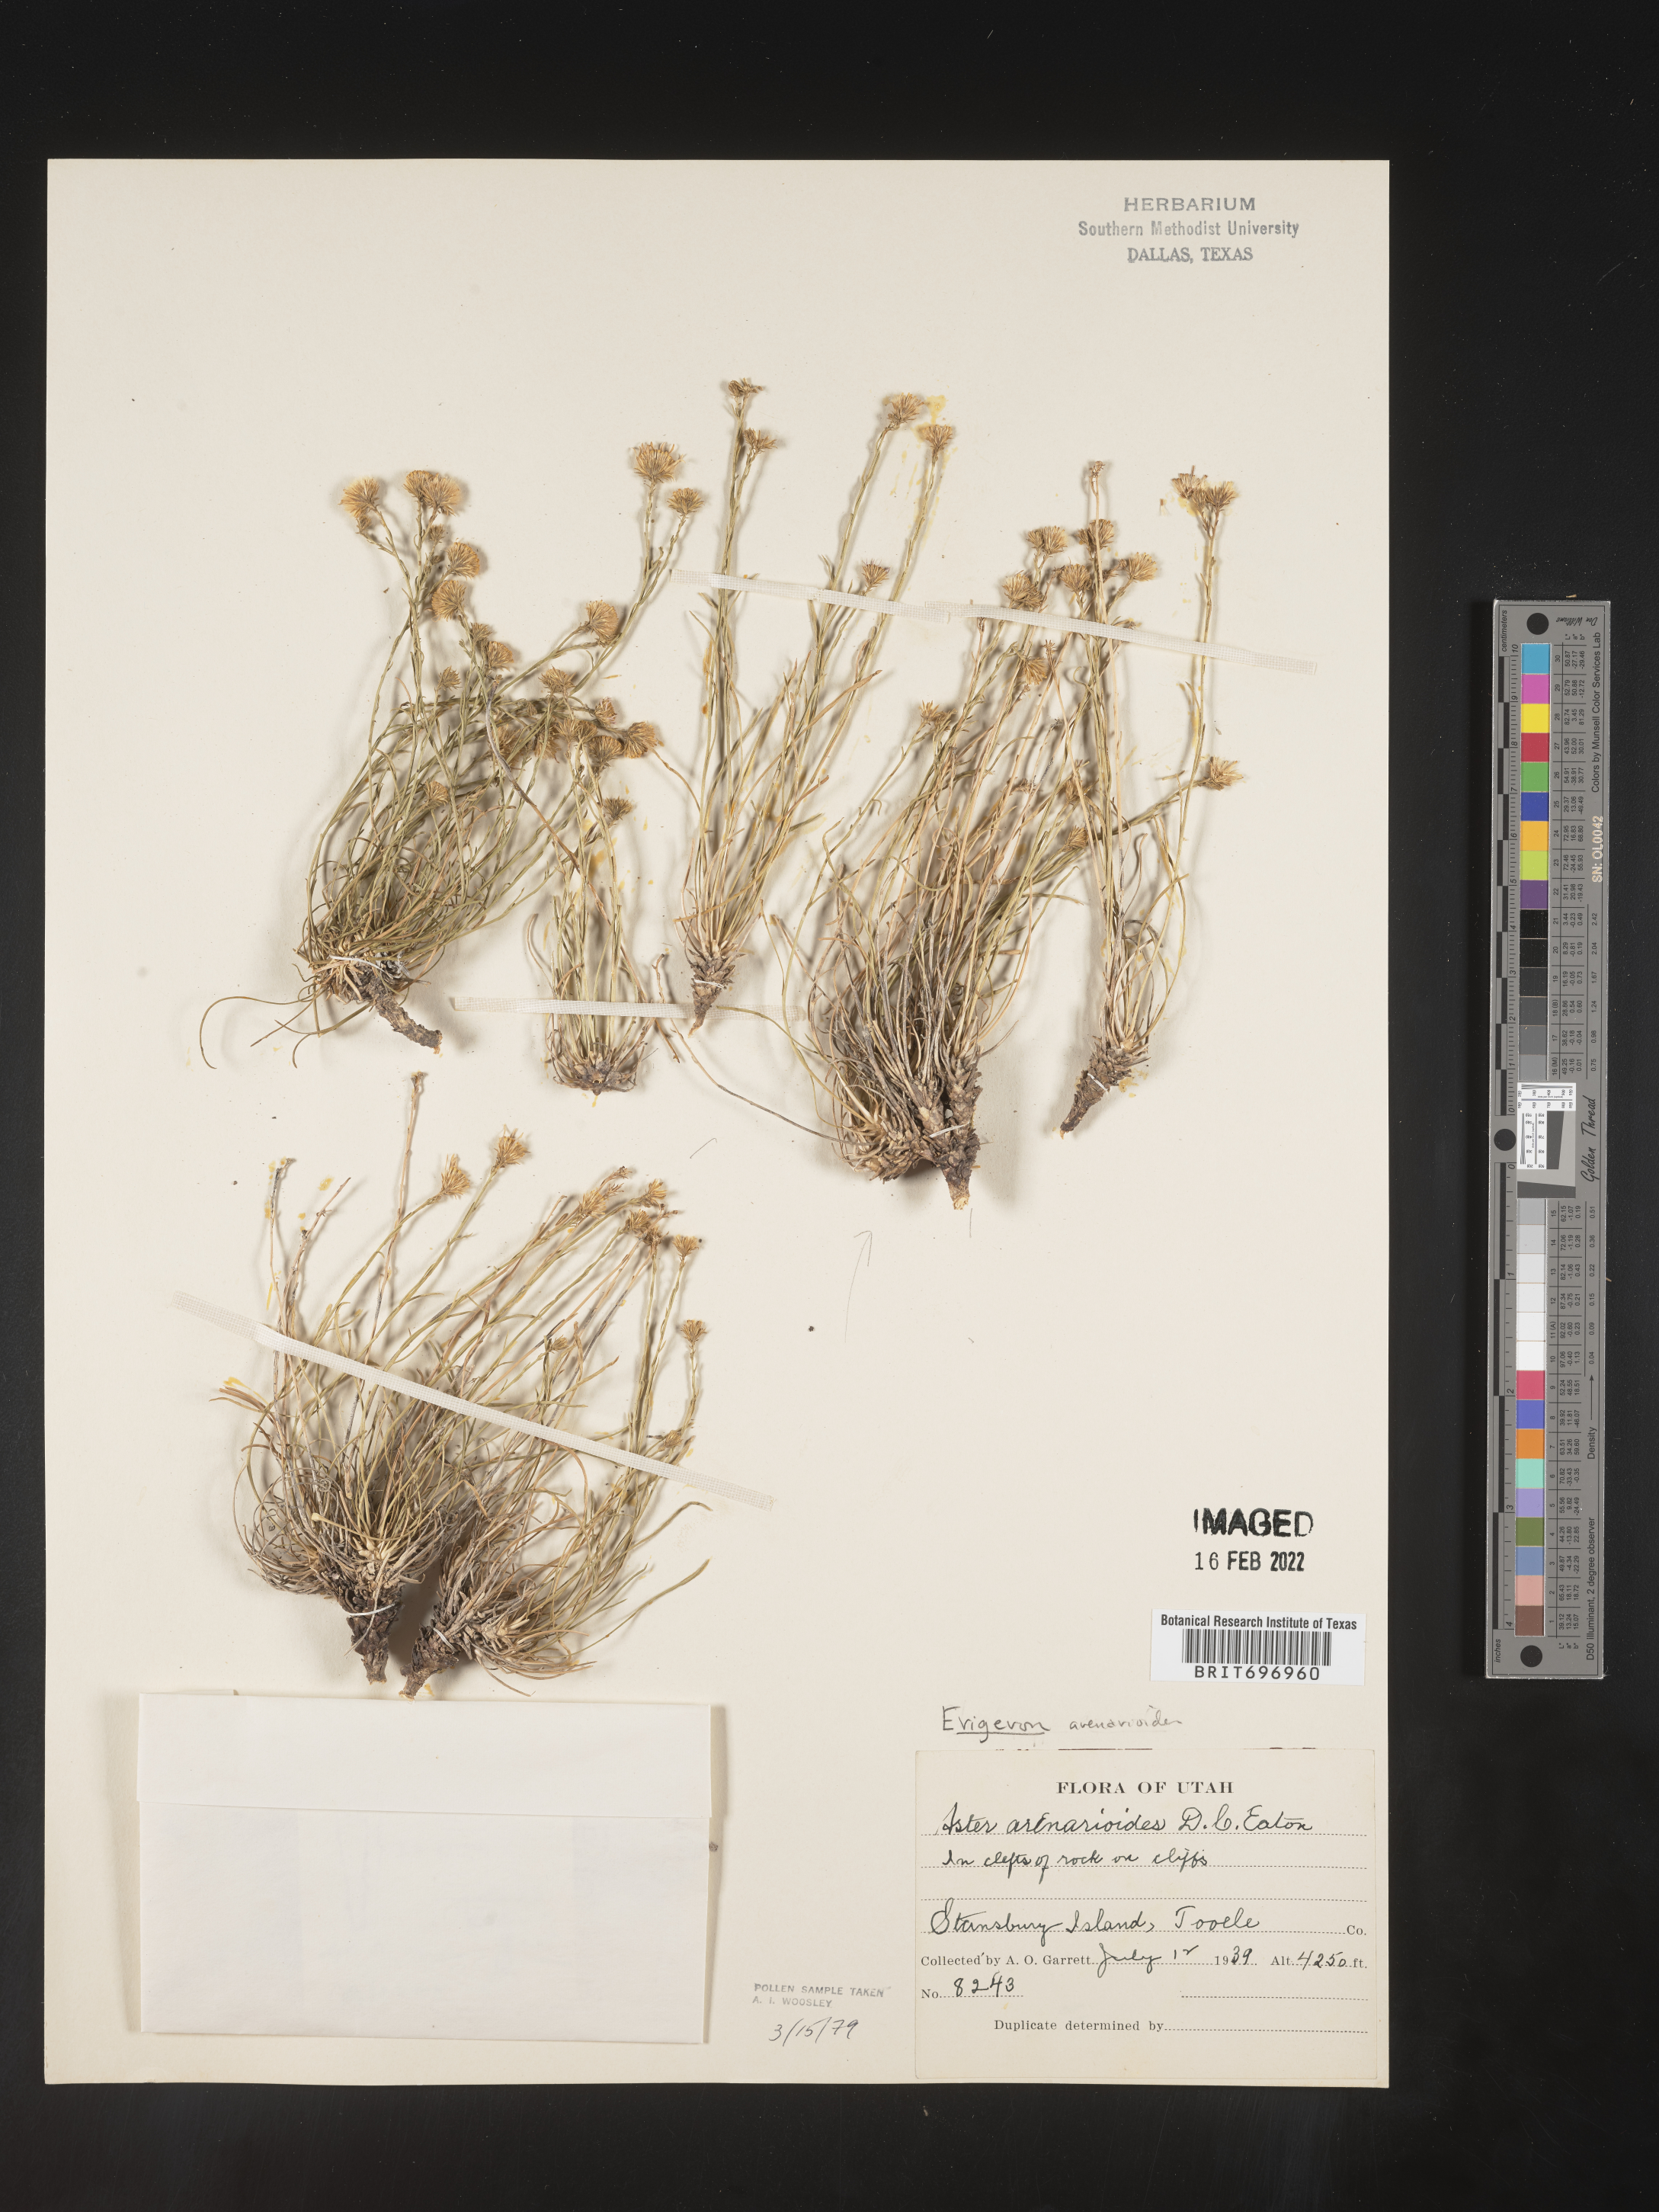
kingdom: Plantae
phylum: Tracheophyta
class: Magnoliopsida
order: Asterales
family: Asteraceae
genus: Erigeron
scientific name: Erigeron arenarioides
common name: Wasatch fleabane
